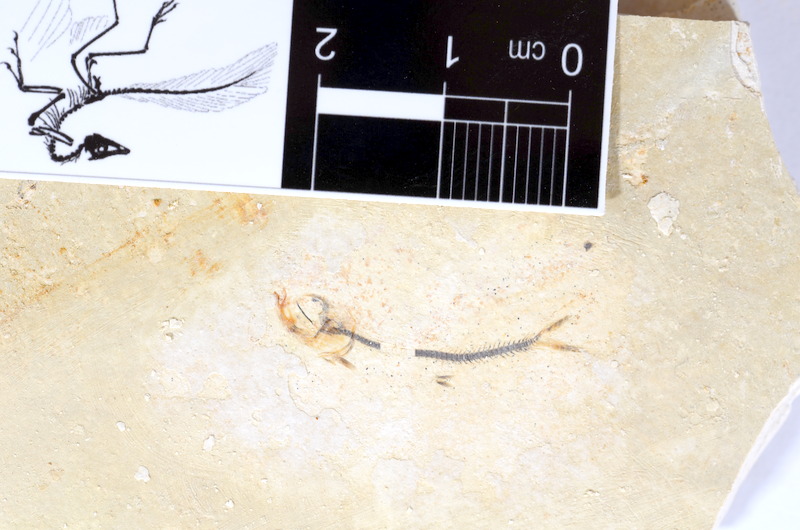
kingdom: Animalia
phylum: Chordata
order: Salmoniformes
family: Orthogonikleithridae
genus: Orthogonikleithrus
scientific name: Orthogonikleithrus hoelli
